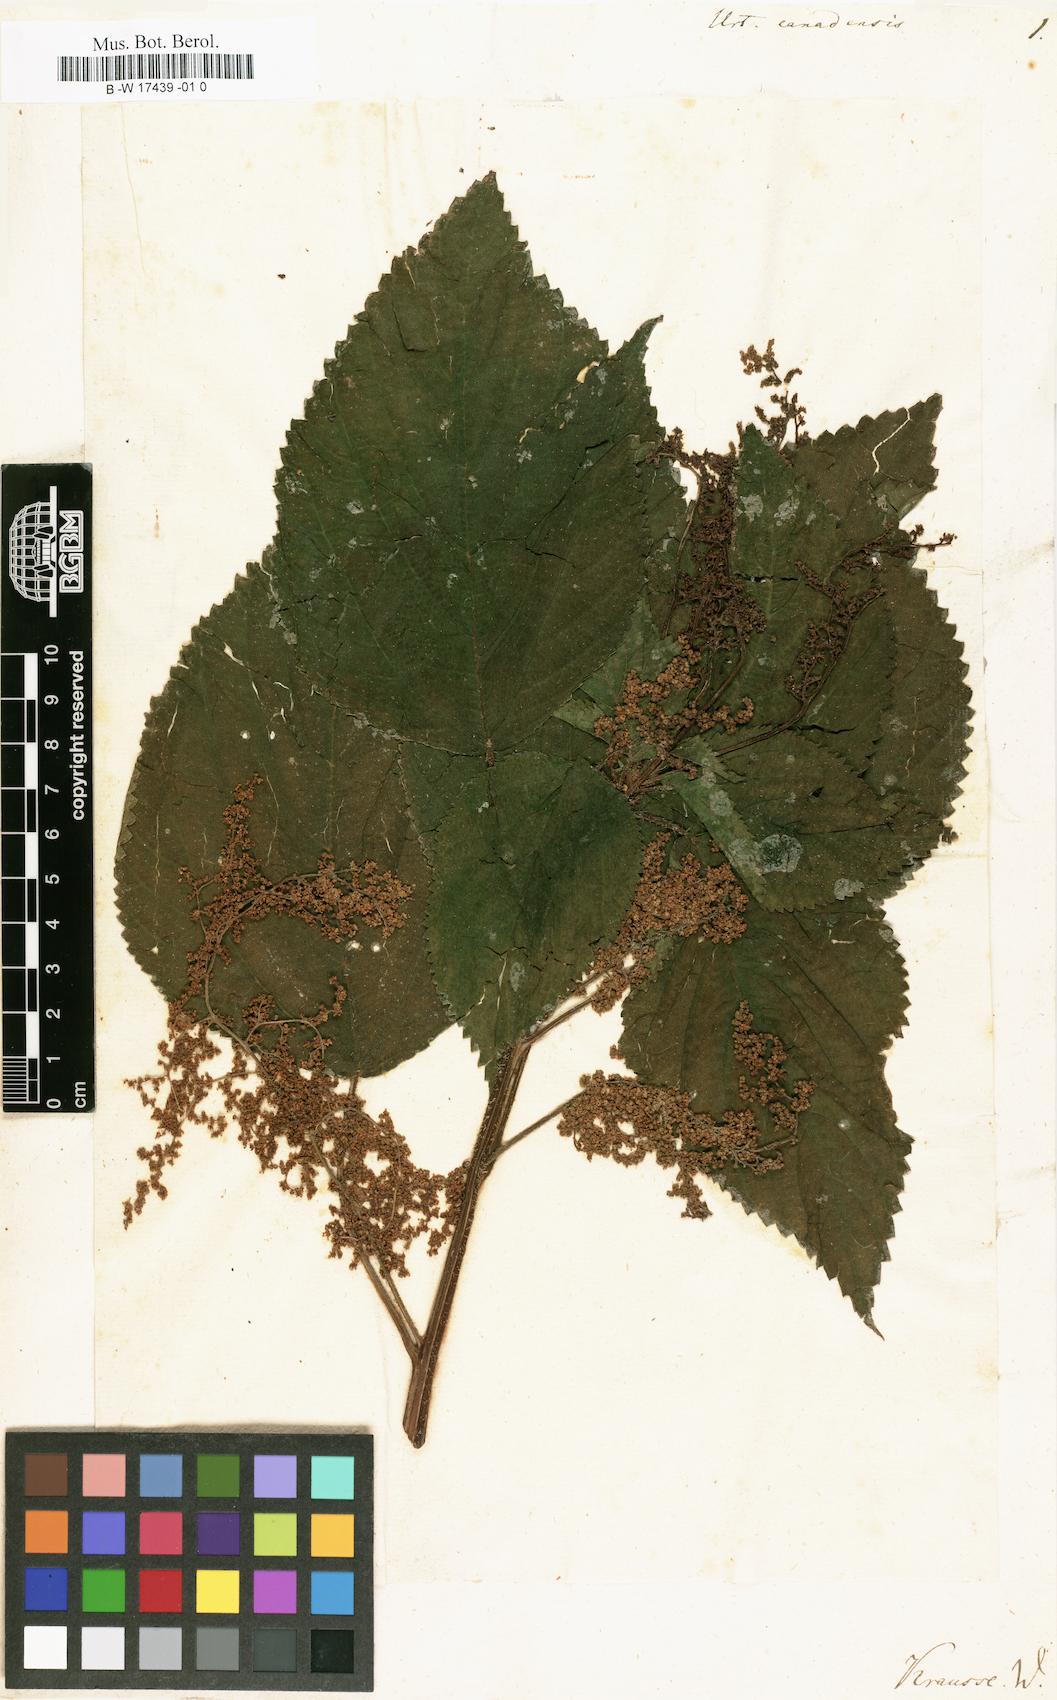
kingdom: Plantae
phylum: Tracheophyta
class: Magnoliopsida
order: Rosales
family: Urticaceae
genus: Laportea
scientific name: Laportea canadensis
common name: Canada nettle
